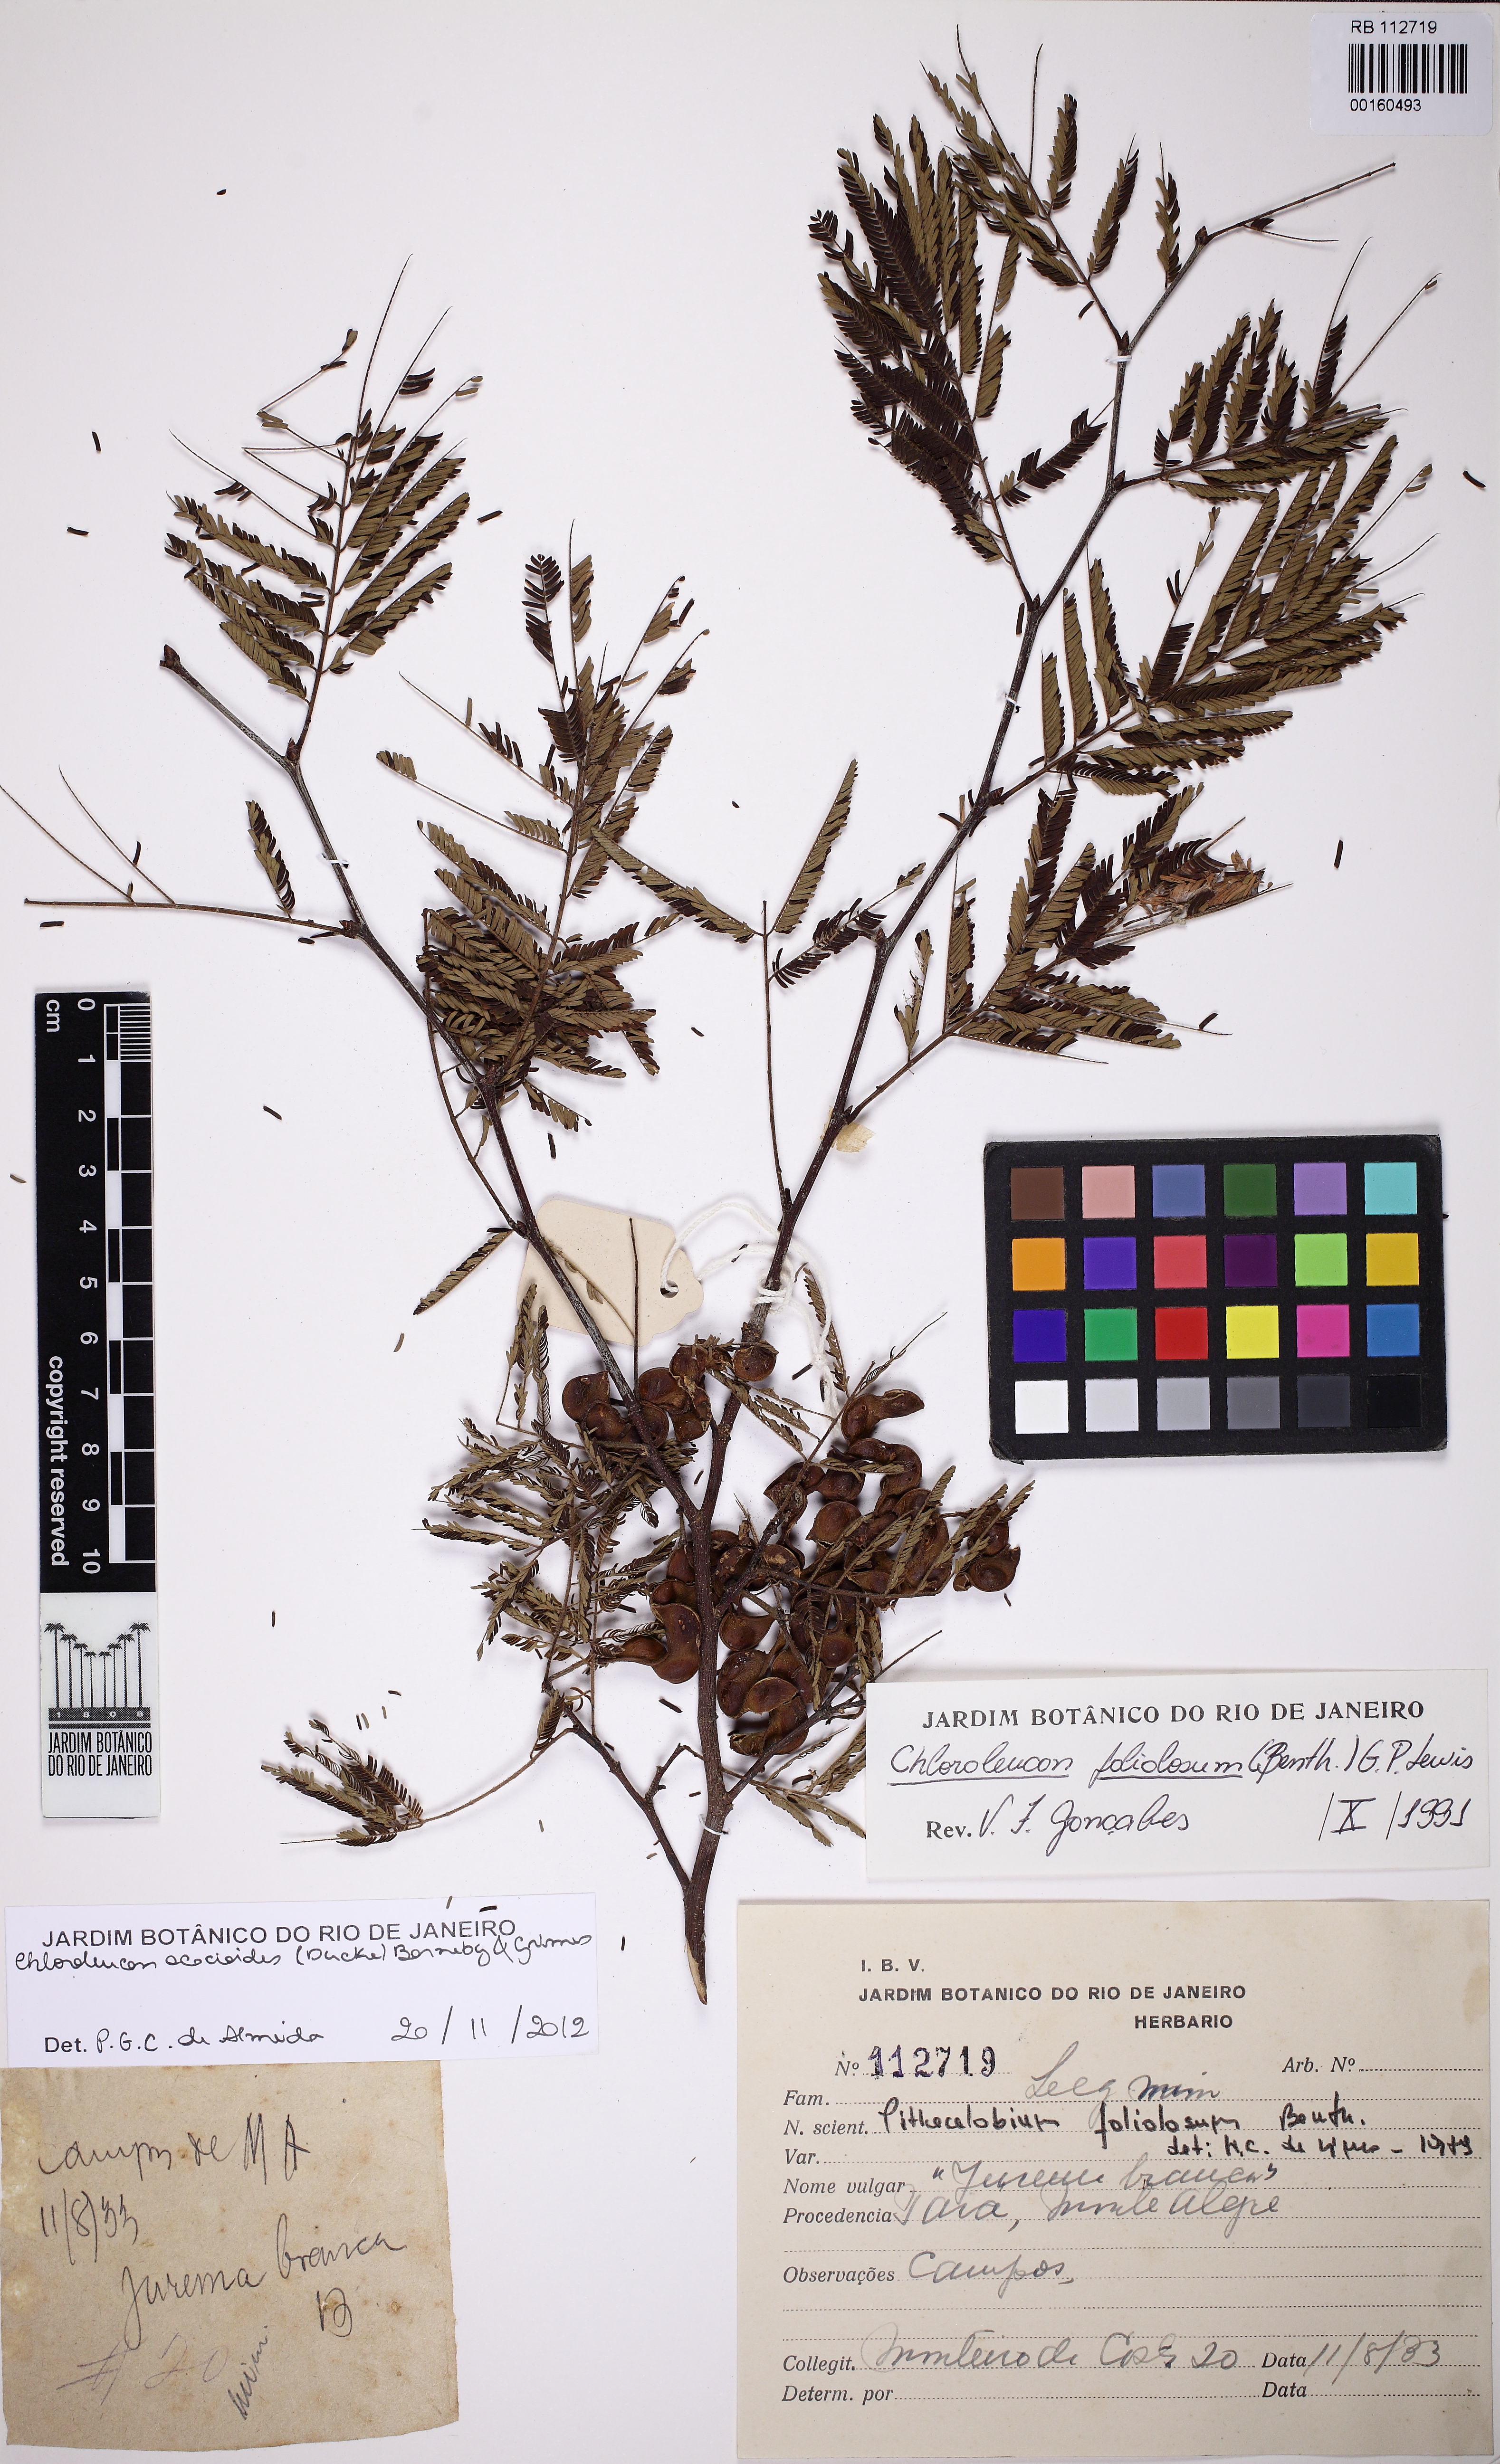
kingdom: Plantae
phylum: Tracheophyta
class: Magnoliopsida
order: Fabales
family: Fabaceae
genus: Chloroleucon
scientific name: Chloroleucon acacioides
